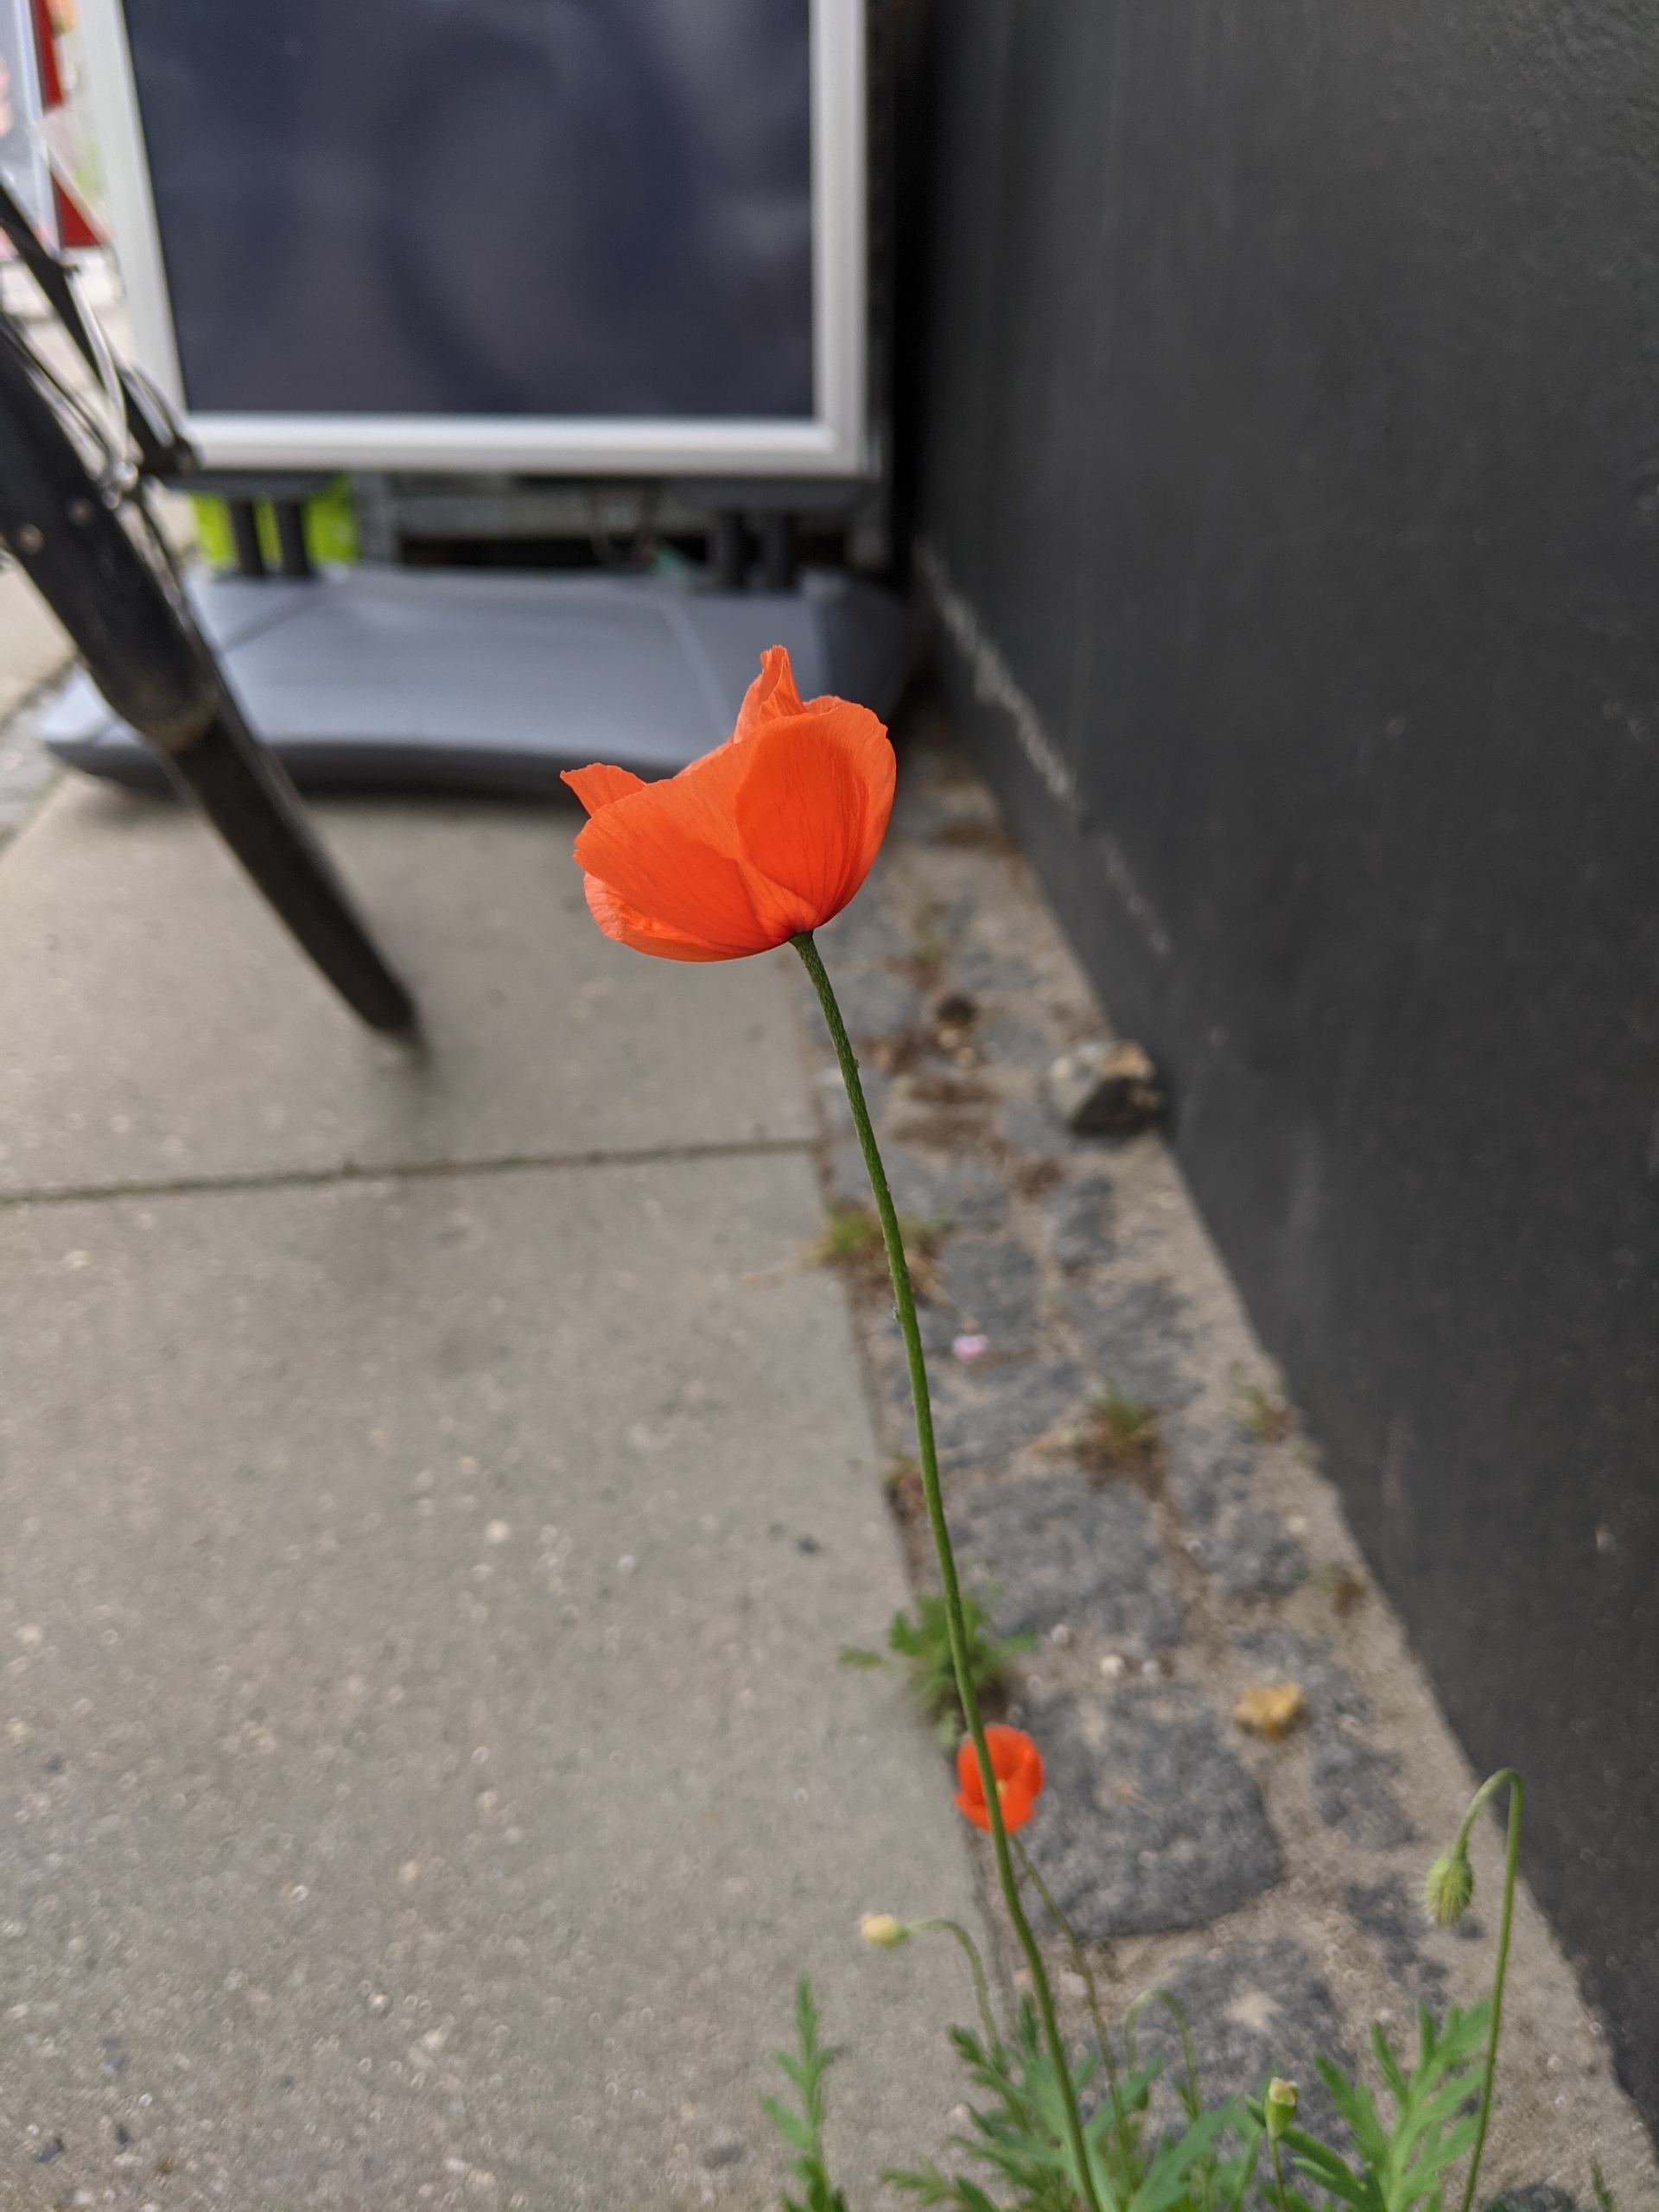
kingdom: Plantae
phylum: Tracheophyta
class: Magnoliopsida
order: Ranunculales
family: Papaveraceae
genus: Papaver
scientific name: Papaver dubium
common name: Gærde-valmue
